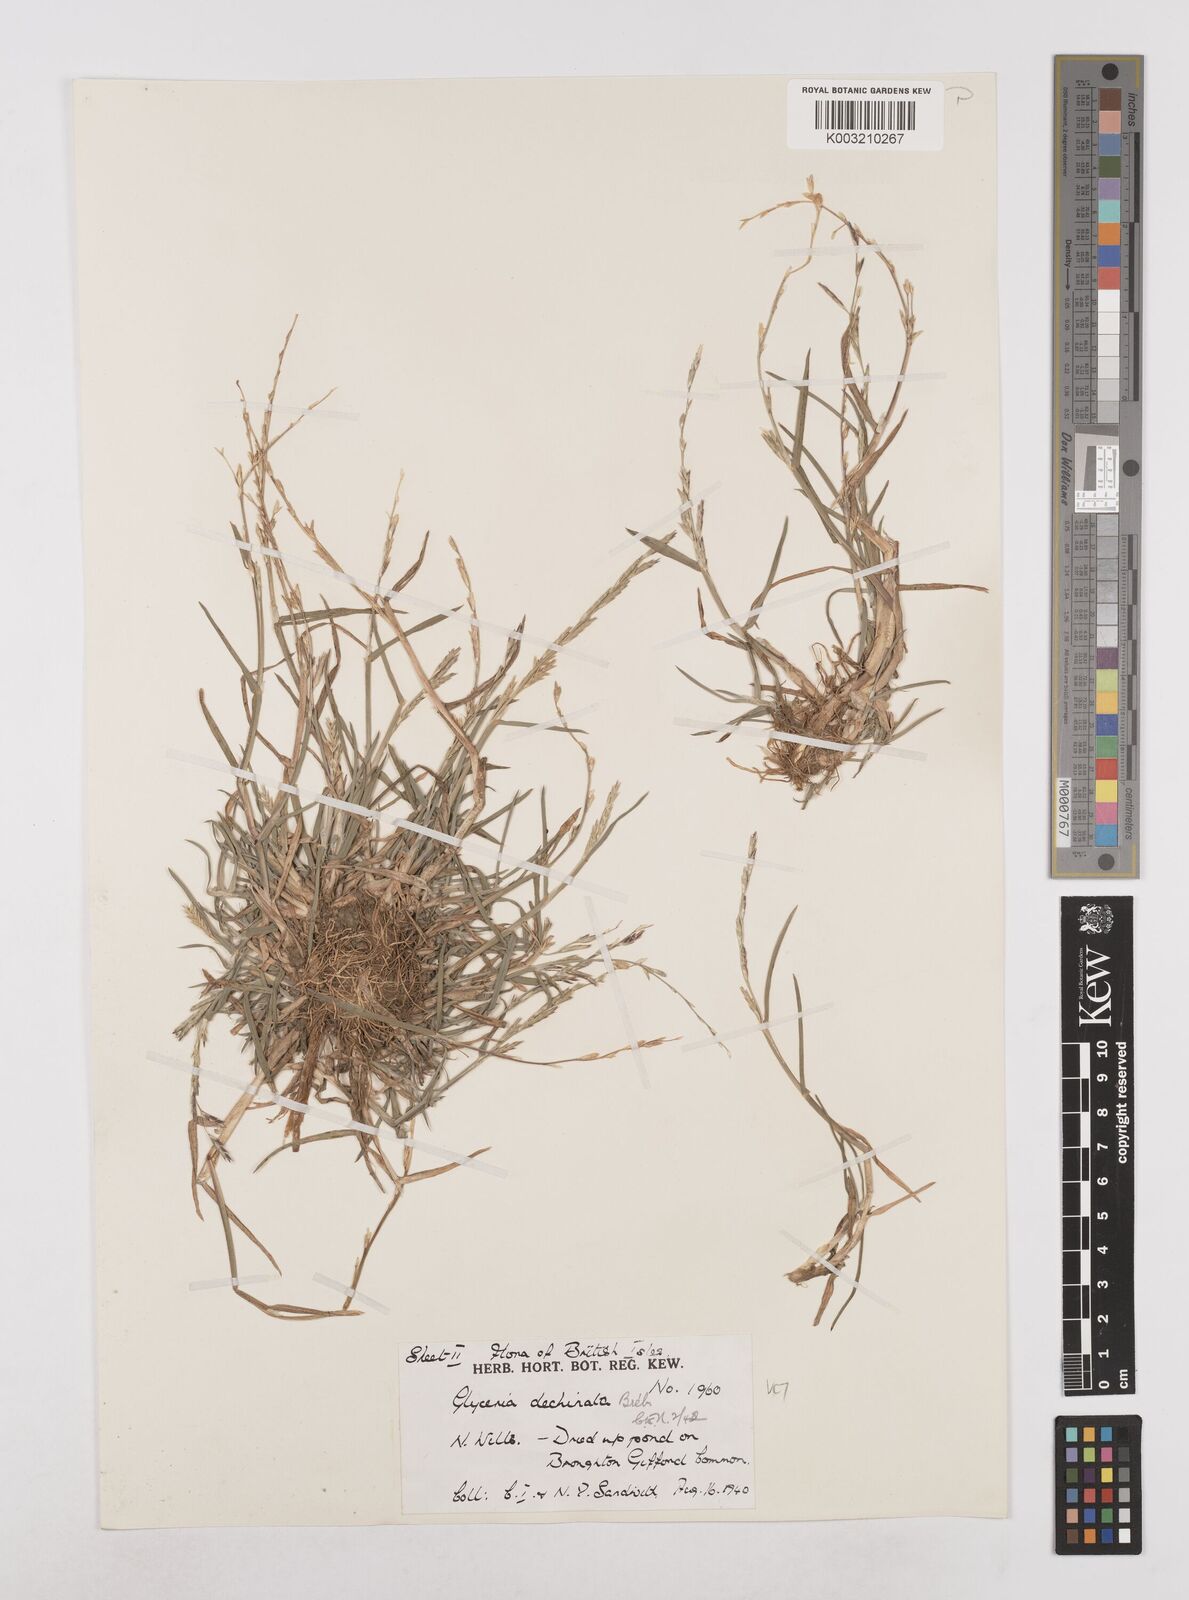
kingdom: Plantae
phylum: Tracheophyta
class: Liliopsida
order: Poales
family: Poaceae
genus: Glyceria
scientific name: Glyceria declinata
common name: Small sweet-grass
